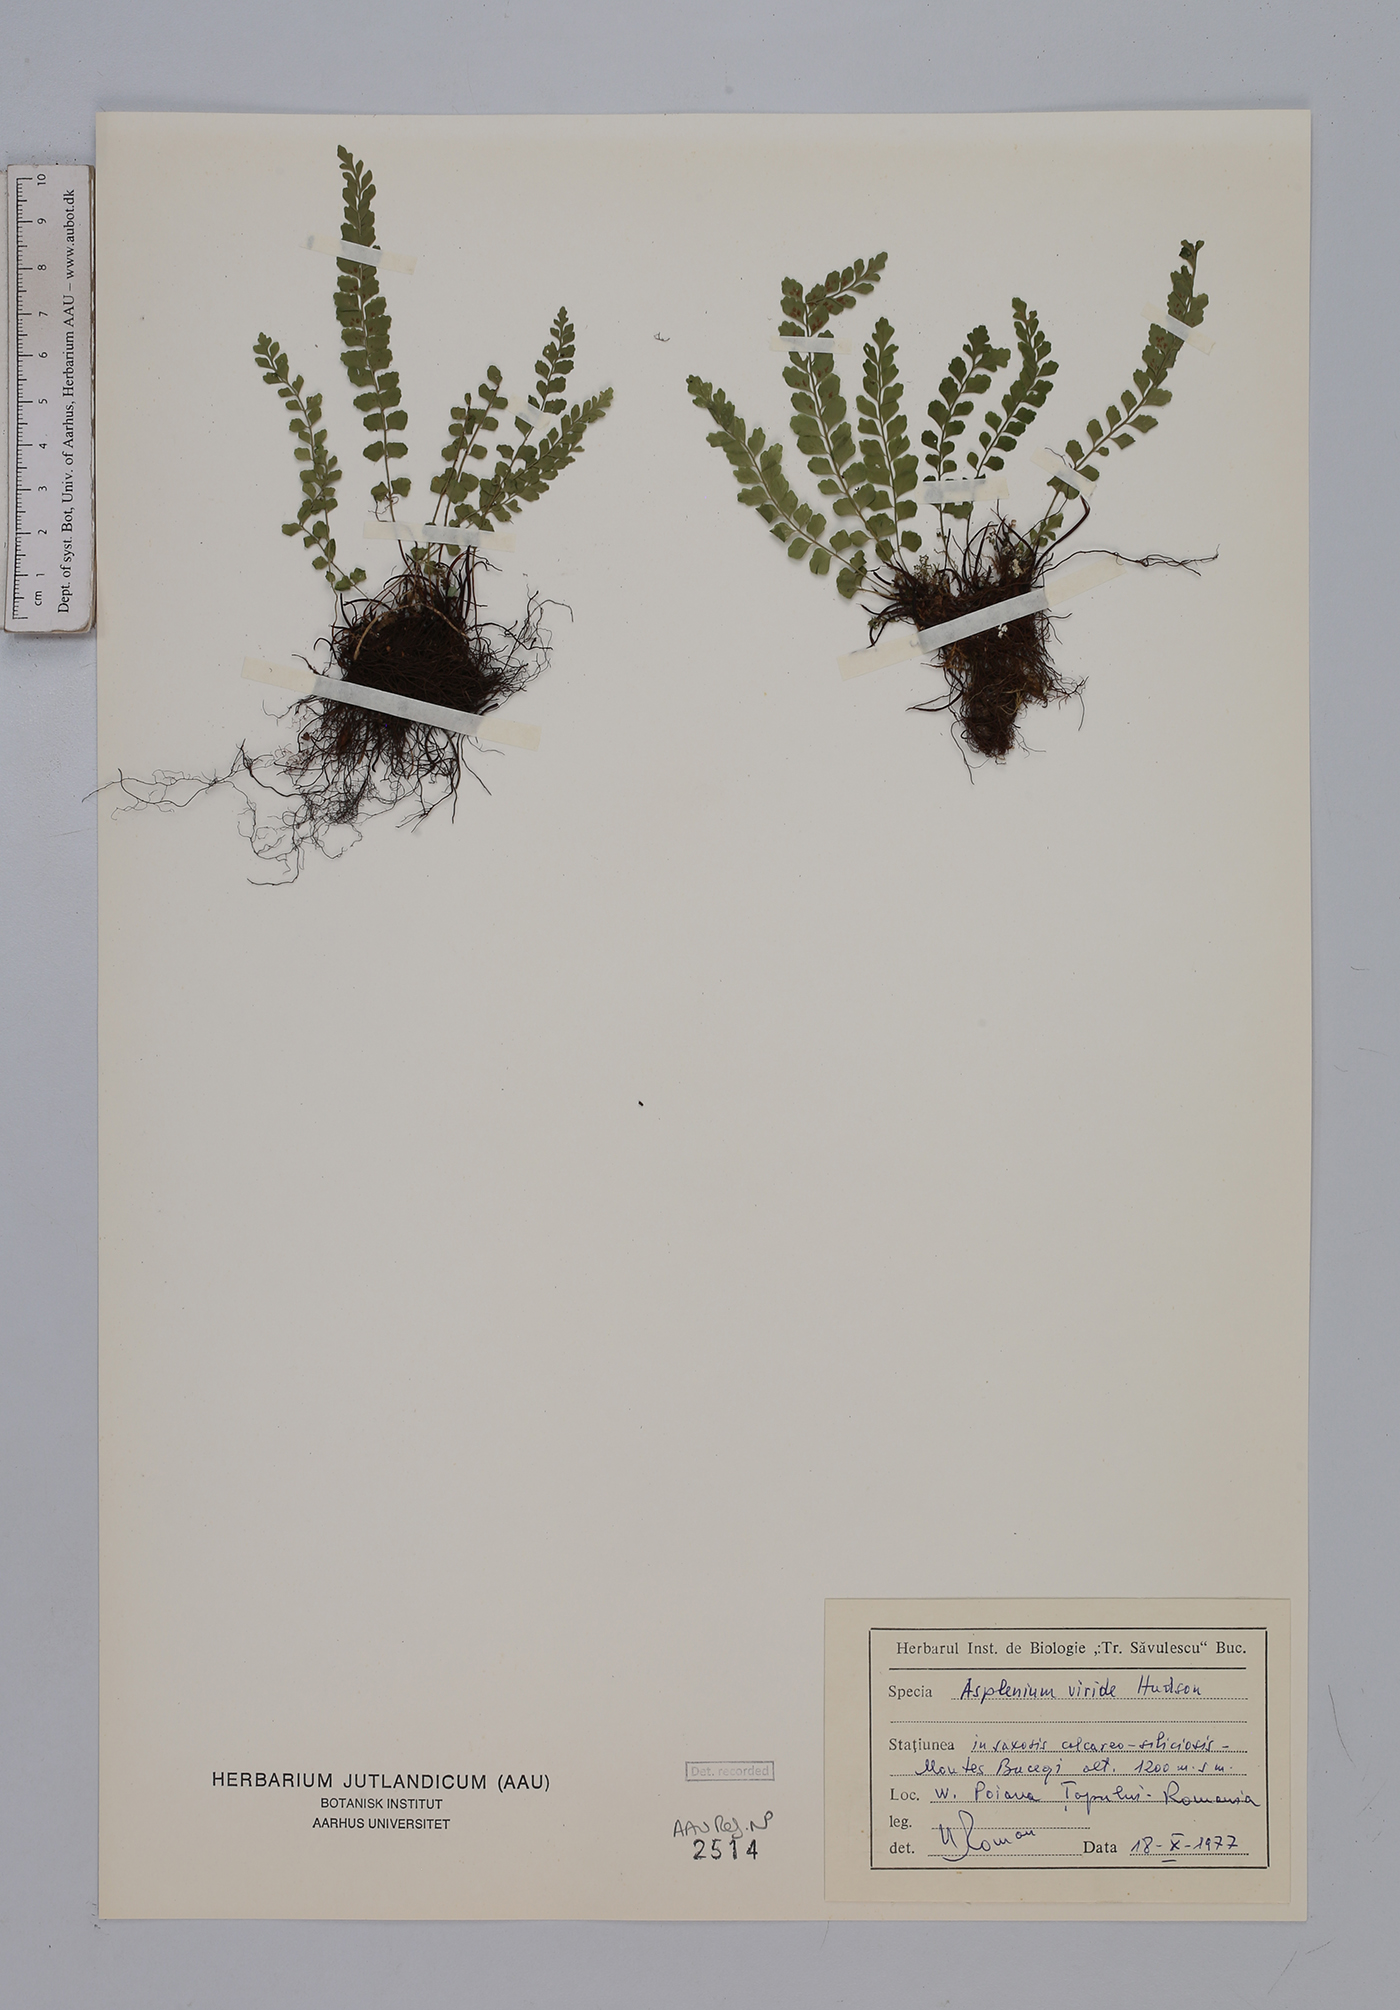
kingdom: Plantae
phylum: Tracheophyta
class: Polypodiopsida
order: Polypodiales
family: Aspleniaceae
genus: Asplenium
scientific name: Asplenium viride
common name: Green spleenwort
